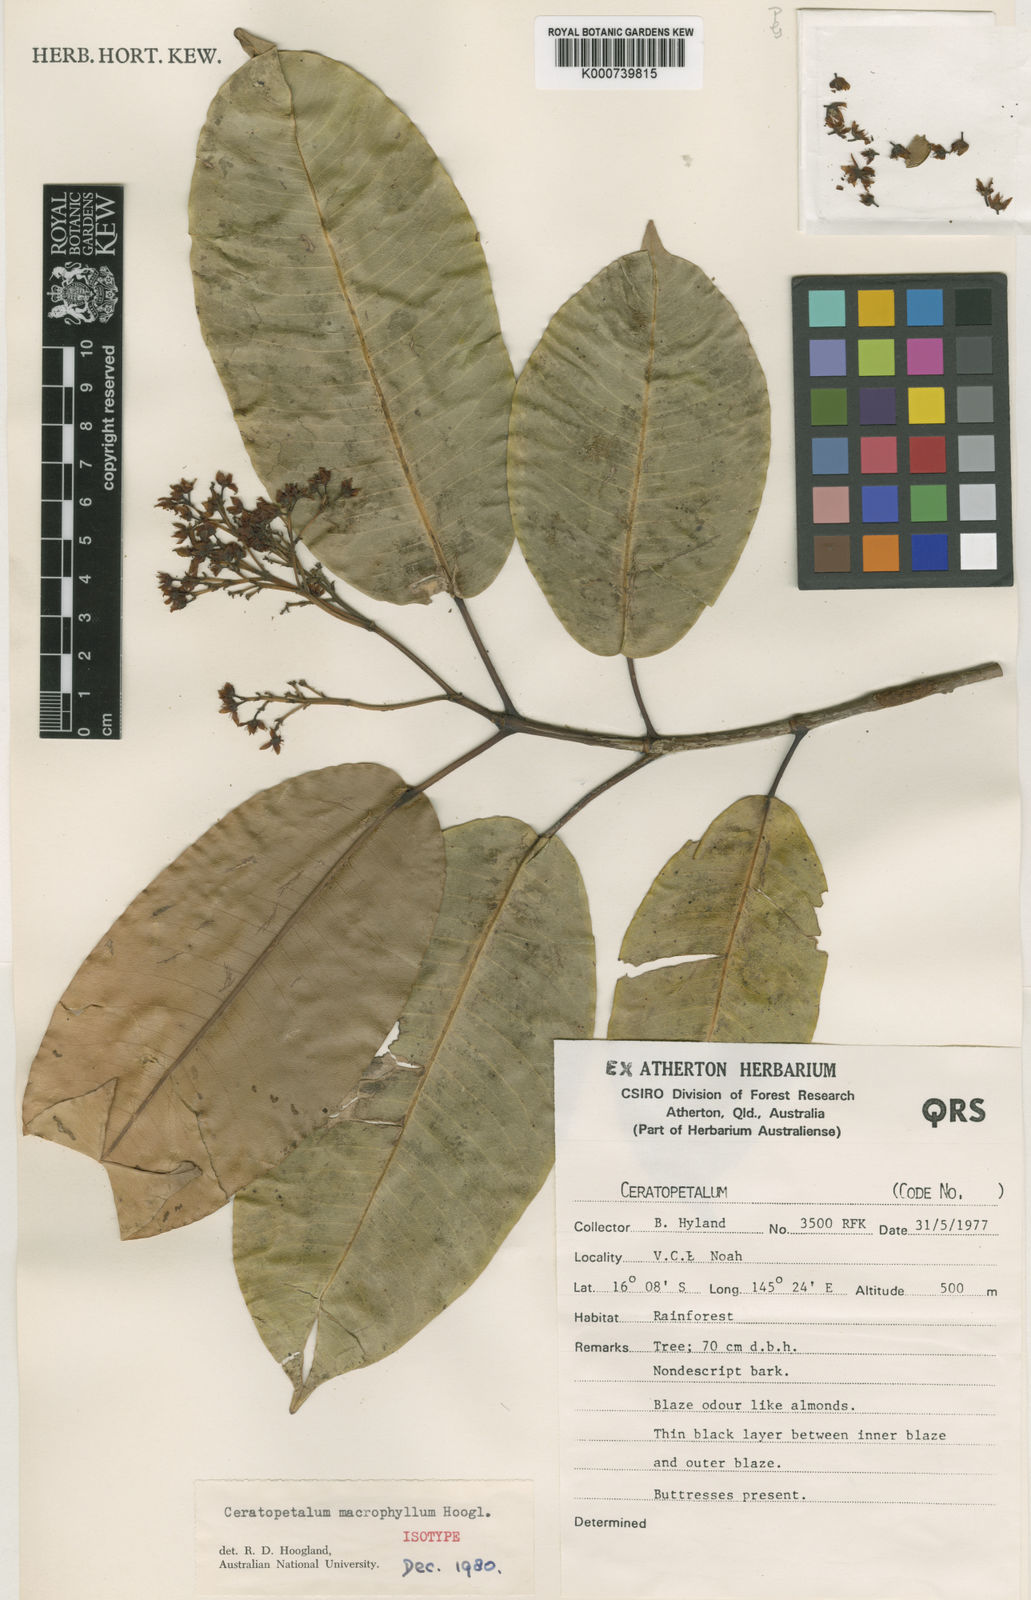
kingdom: Plantae
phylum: Tracheophyta
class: Magnoliopsida
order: Oxalidales
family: Cunoniaceae
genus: Ceratopetalum
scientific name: Ceratopetalum macrophyllum
